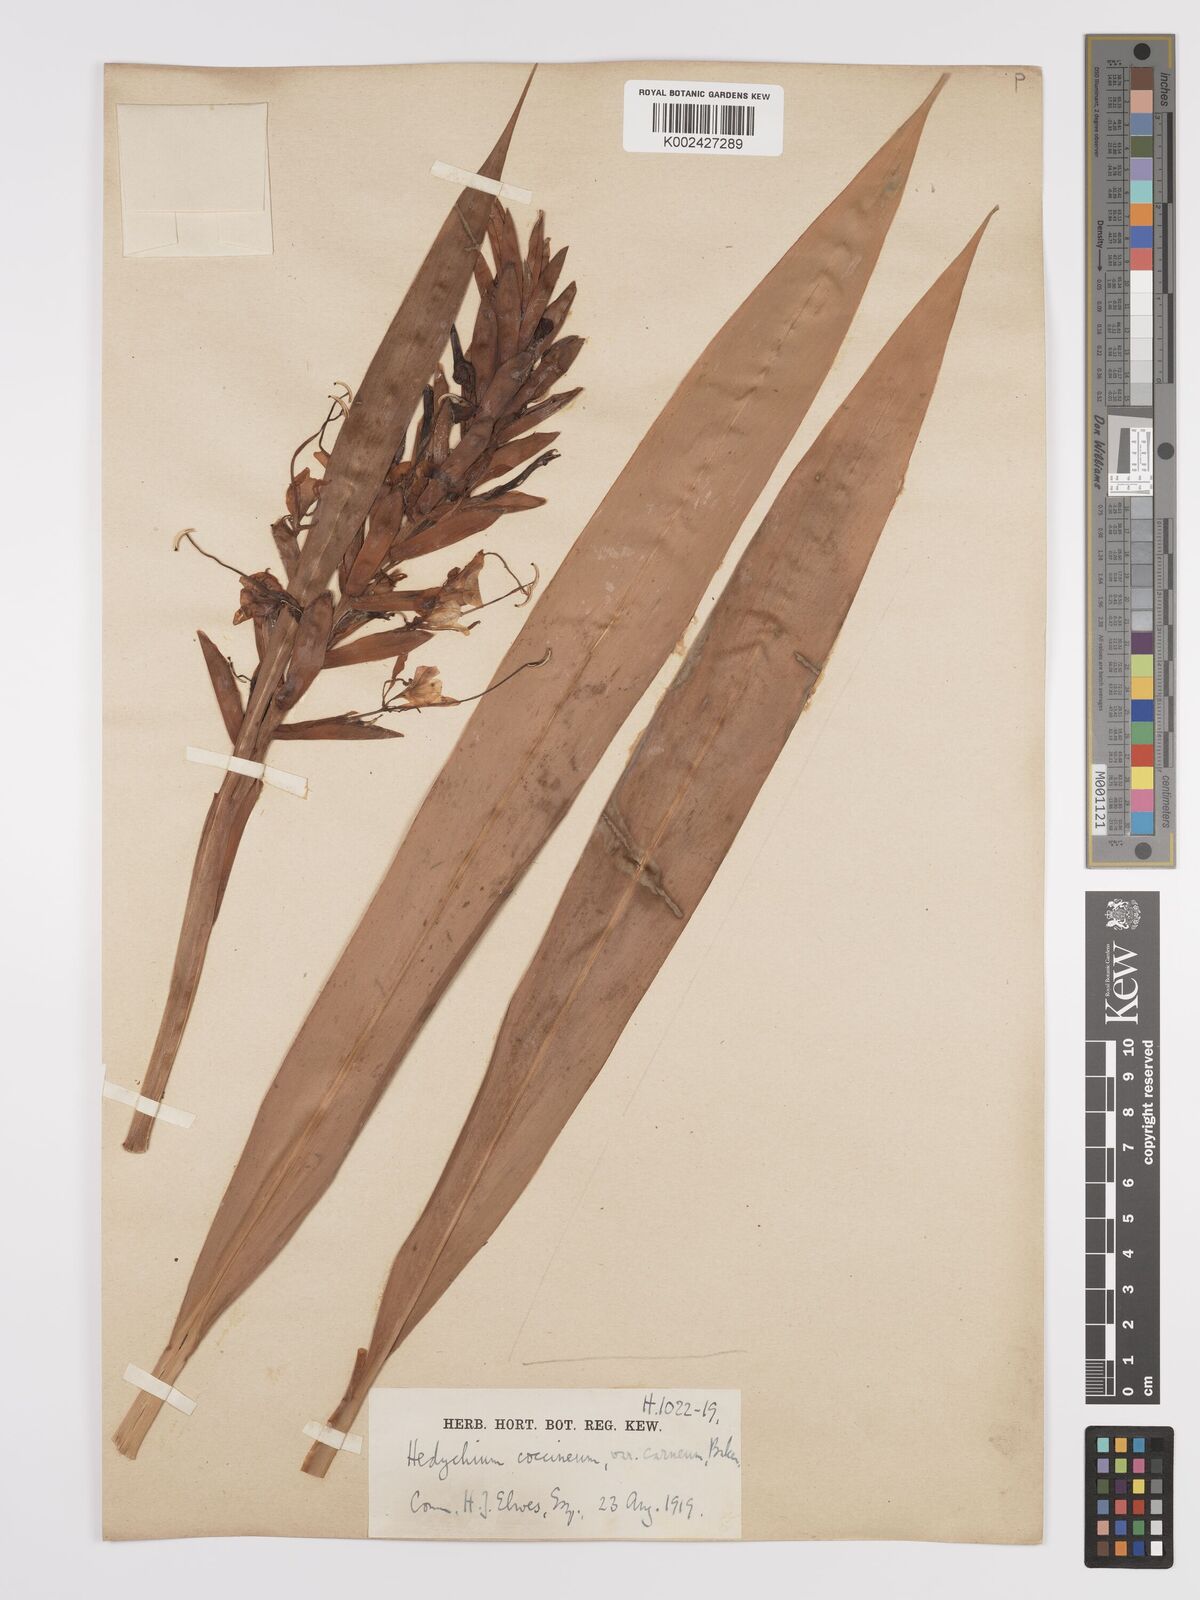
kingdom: Plantae
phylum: Tracheophyta
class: Liliopsida
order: Zingiberales
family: Zingiberaceae
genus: Hedychium
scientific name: Hedychium coccineum
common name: Red ginger-lily
